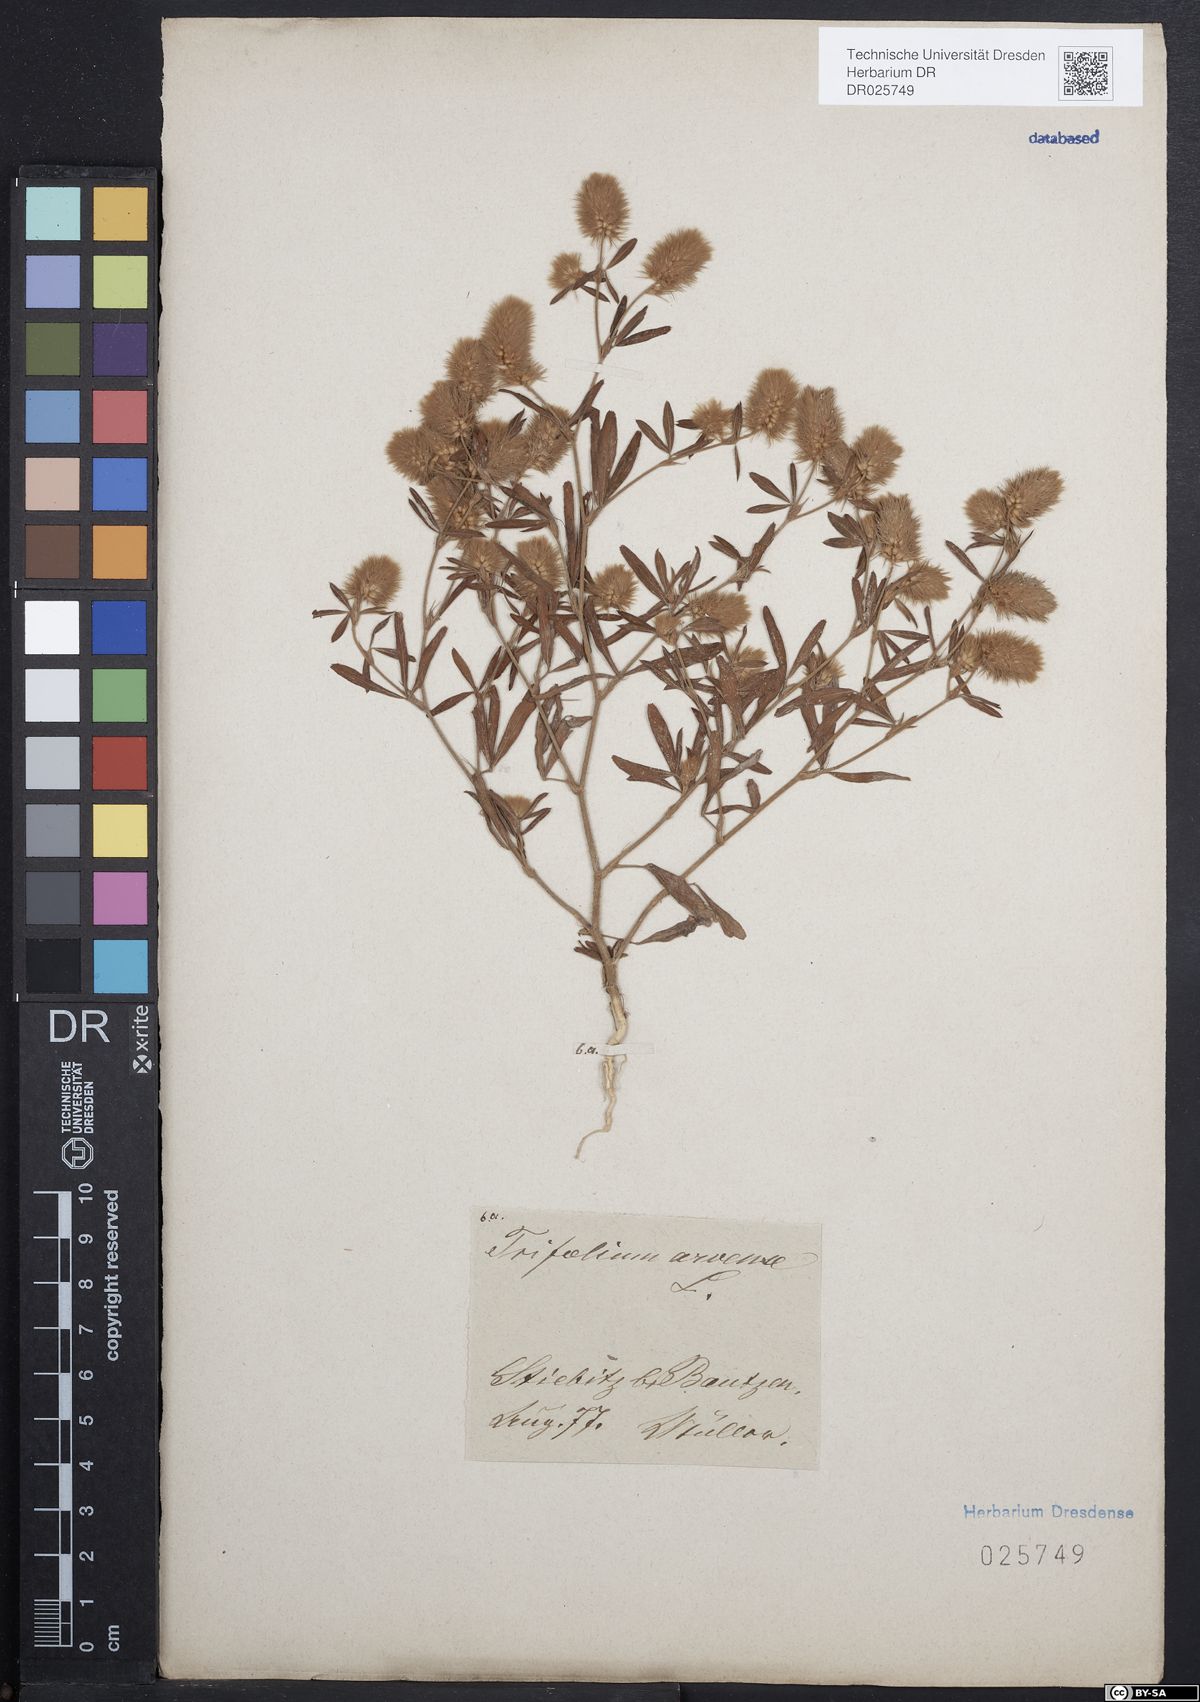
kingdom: Plantae
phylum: Tracheophyta
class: Magnoliopsida
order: Fabales
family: Fabaceae
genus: Trifolium
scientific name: Trifolium arvense
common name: Hare's-foot clover
